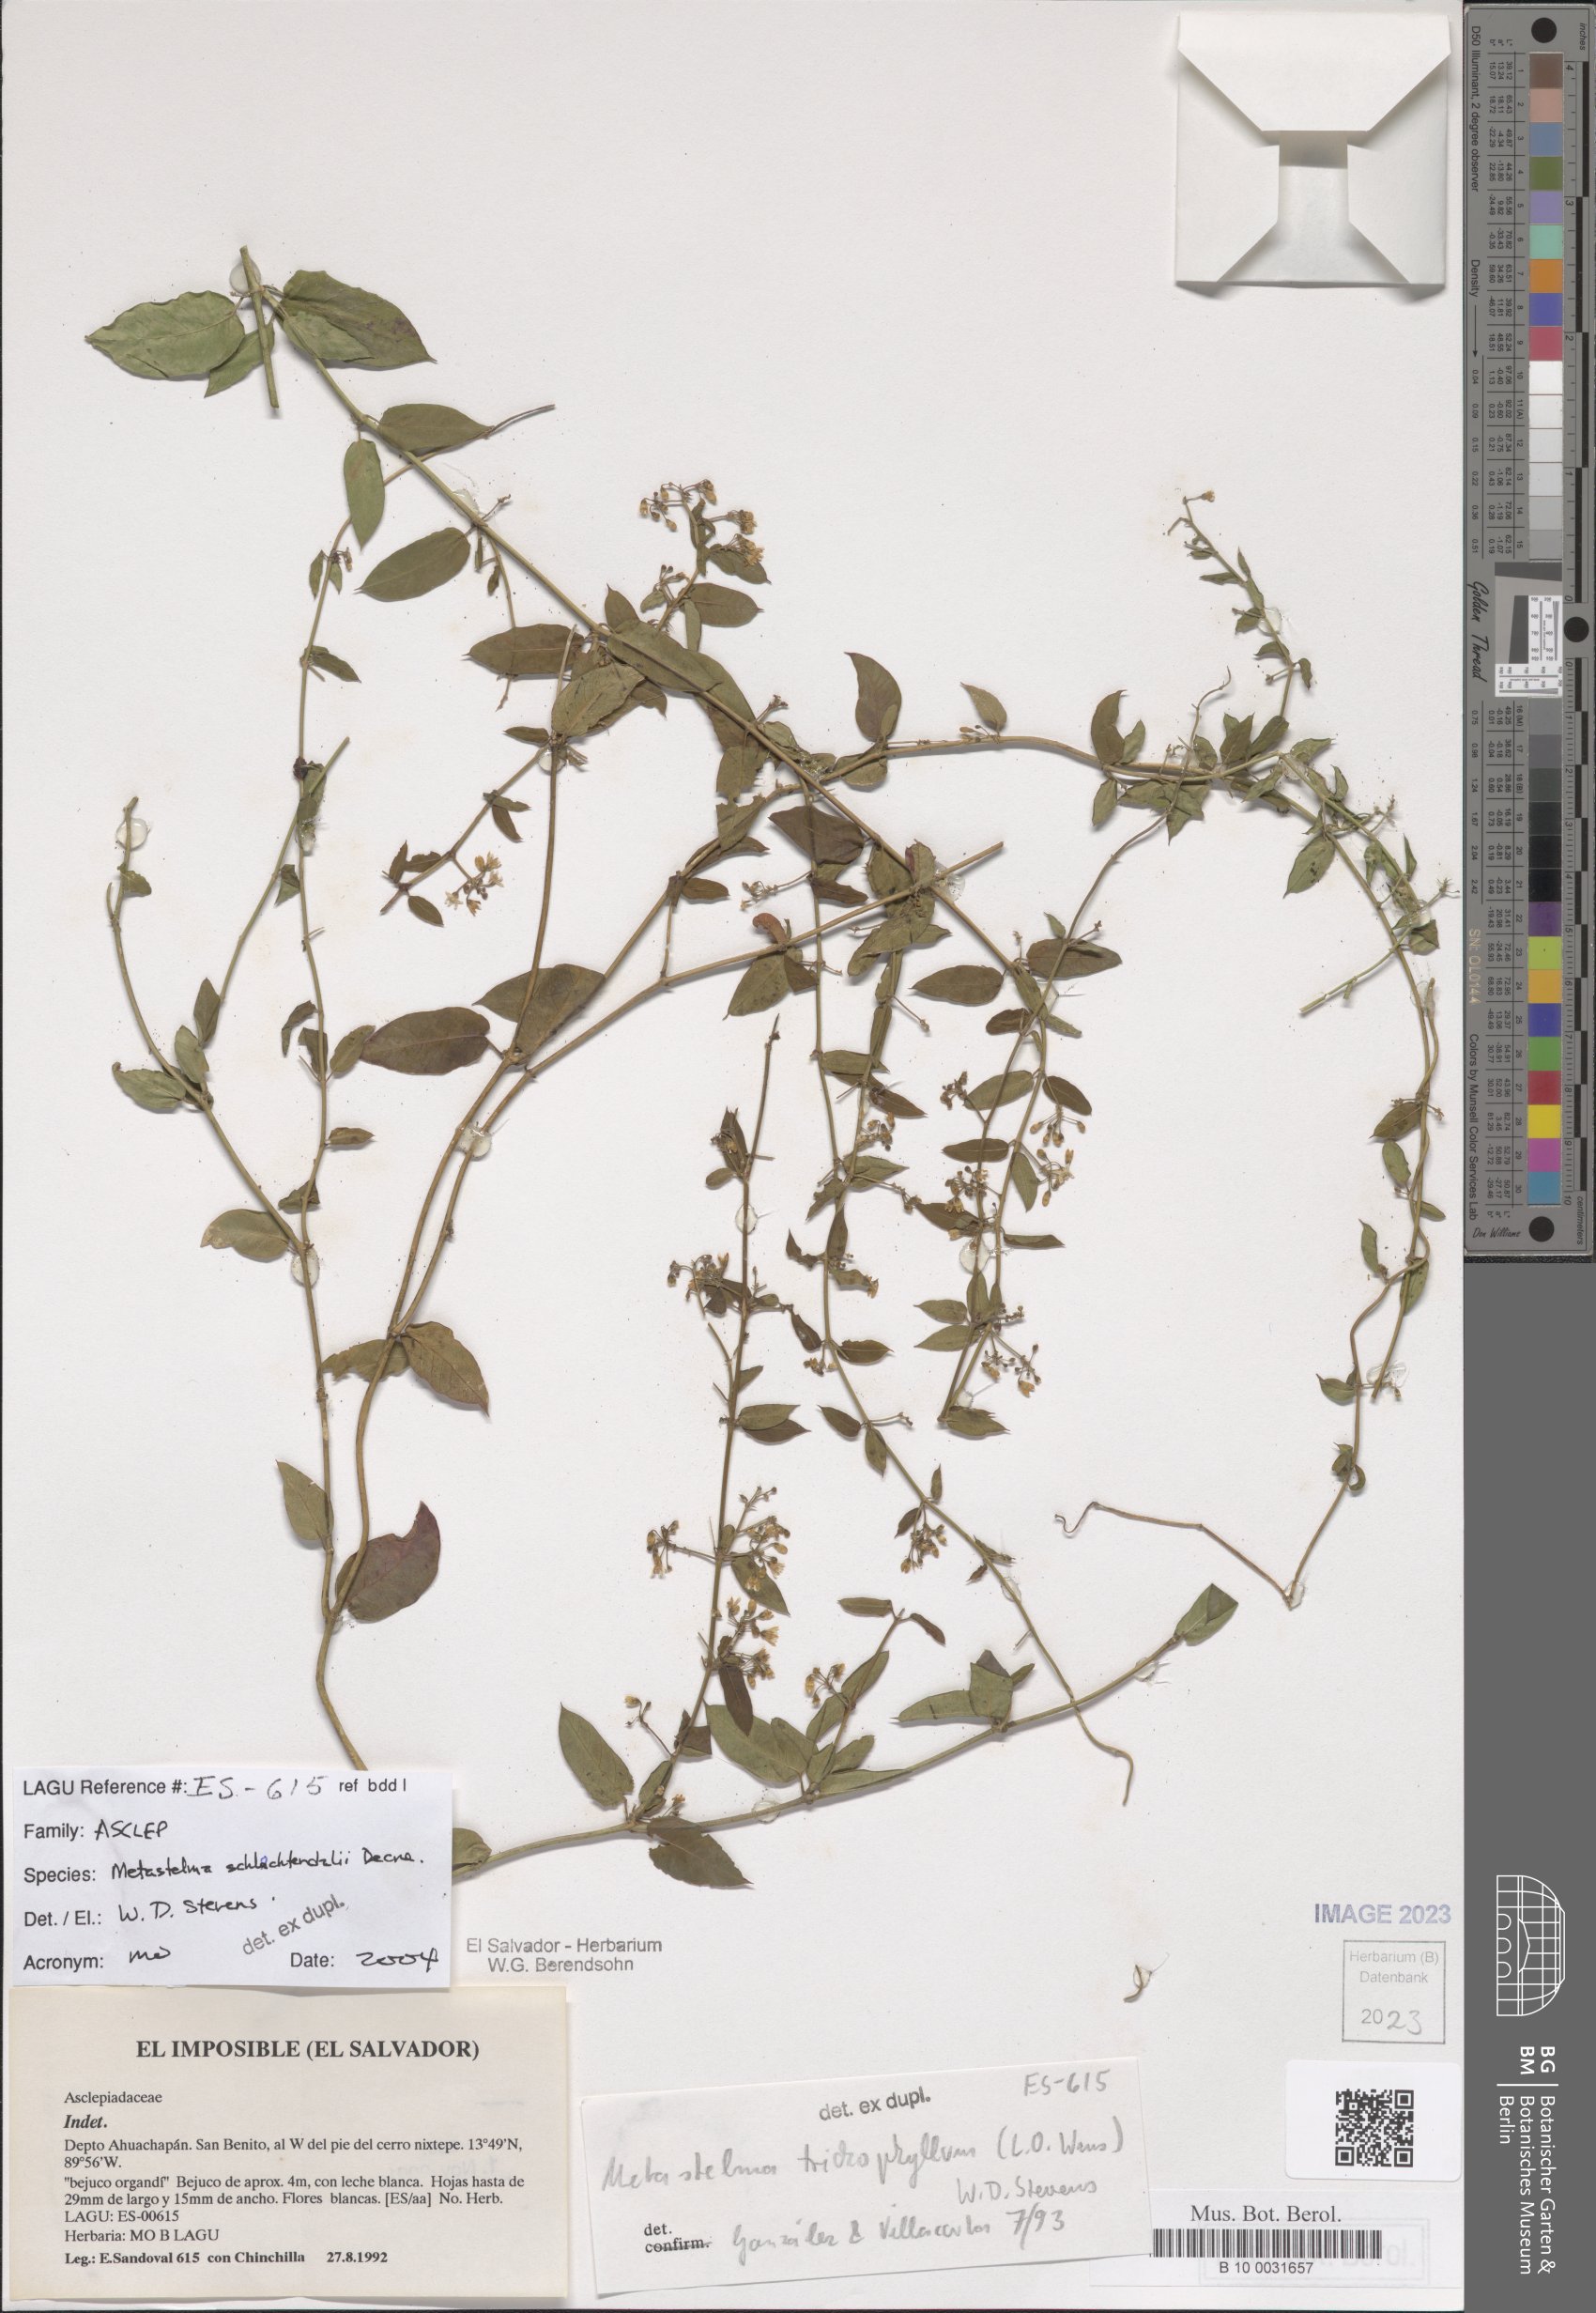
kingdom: Plantae
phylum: Tracheophyta
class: Magnoliopsida
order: Gentianales
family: Apocynaceae
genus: Metastelma
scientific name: Metastelma schlechtendalii
